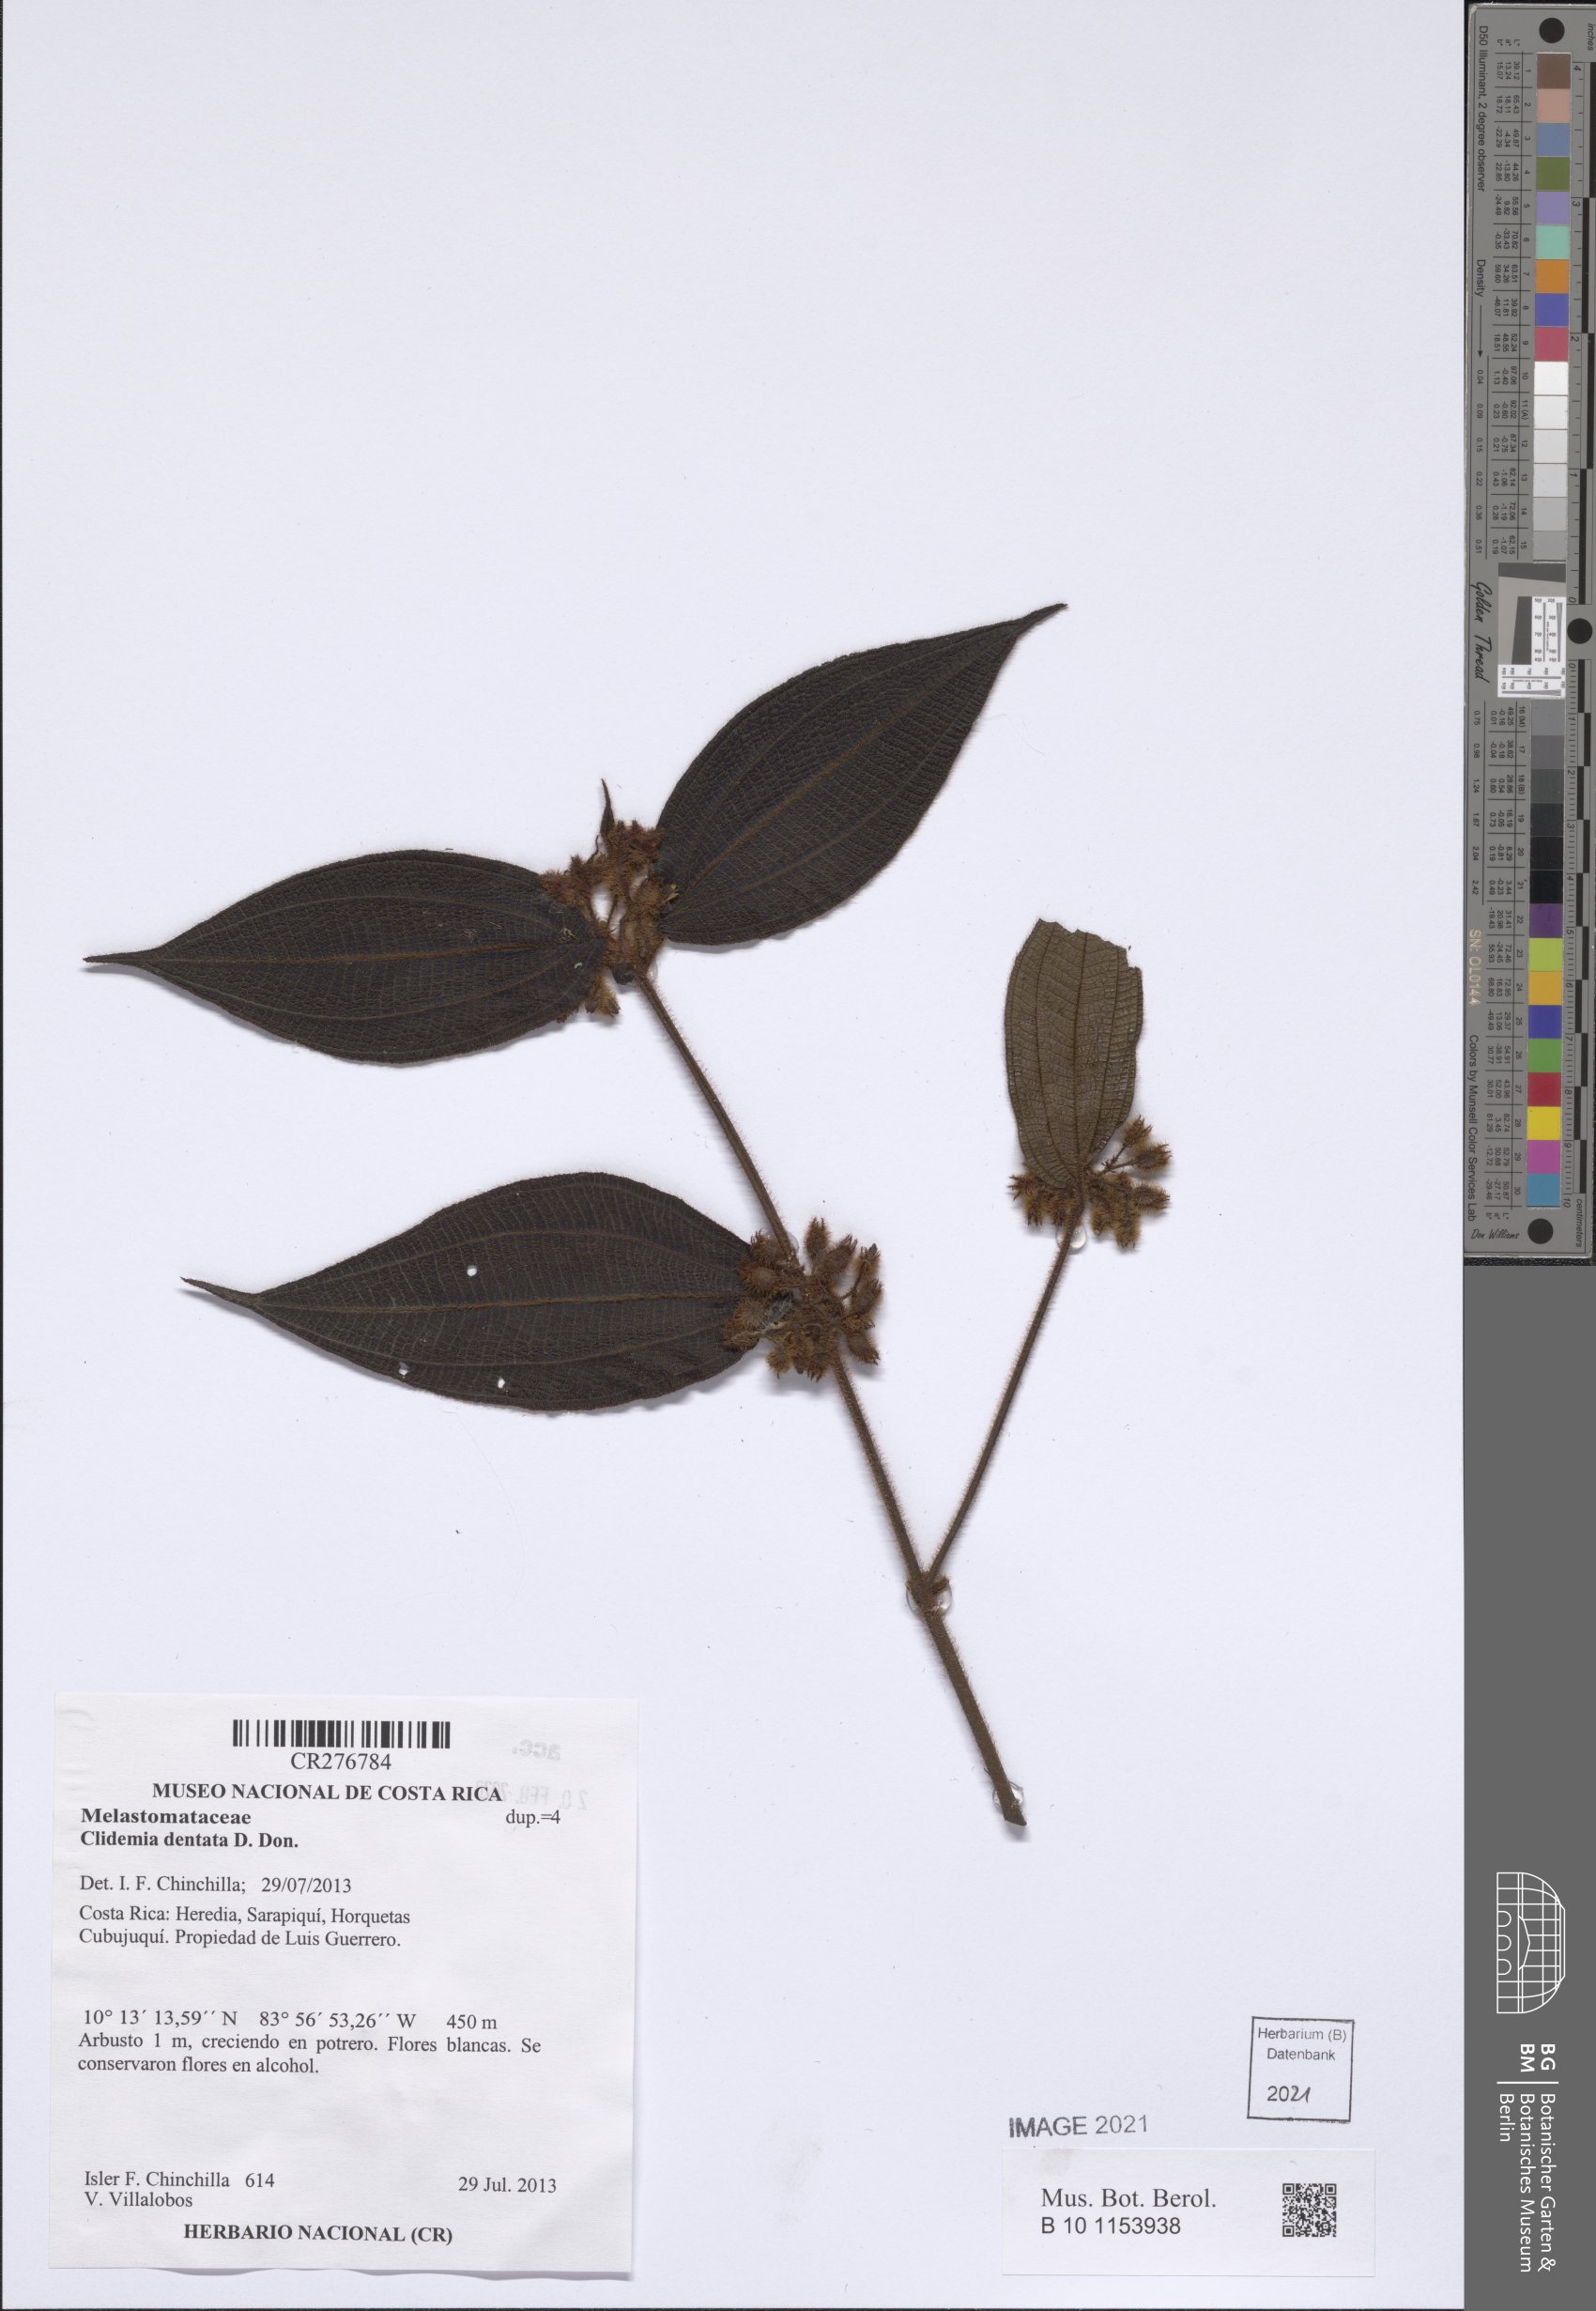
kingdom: Plantae
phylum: Tracheophyta
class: Magnoliopsida
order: Myrtales
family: Melastomataceae
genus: Miconia
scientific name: Miconia
